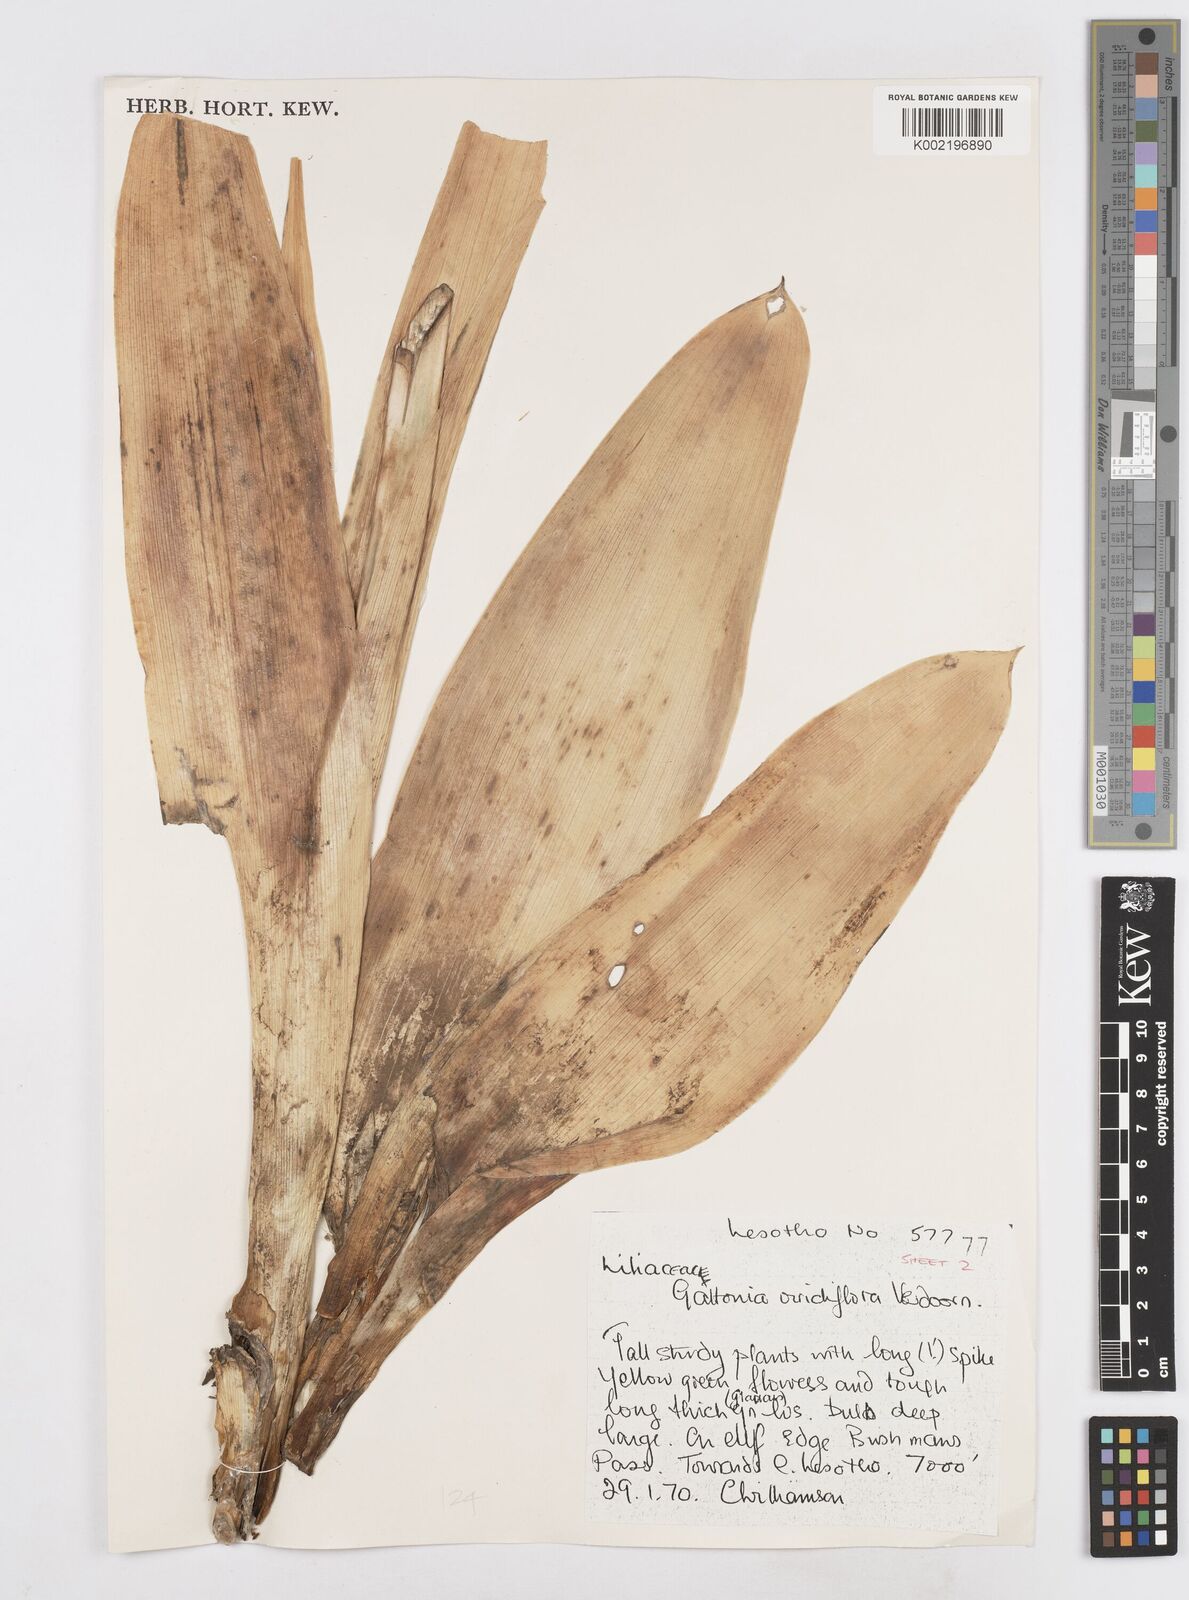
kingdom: Plantae
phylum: Tracheophyta
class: Liliopsida
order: Asparagales
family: Asparagaceae
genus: Ornithogalum
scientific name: Ornithogalum viridiflorum
